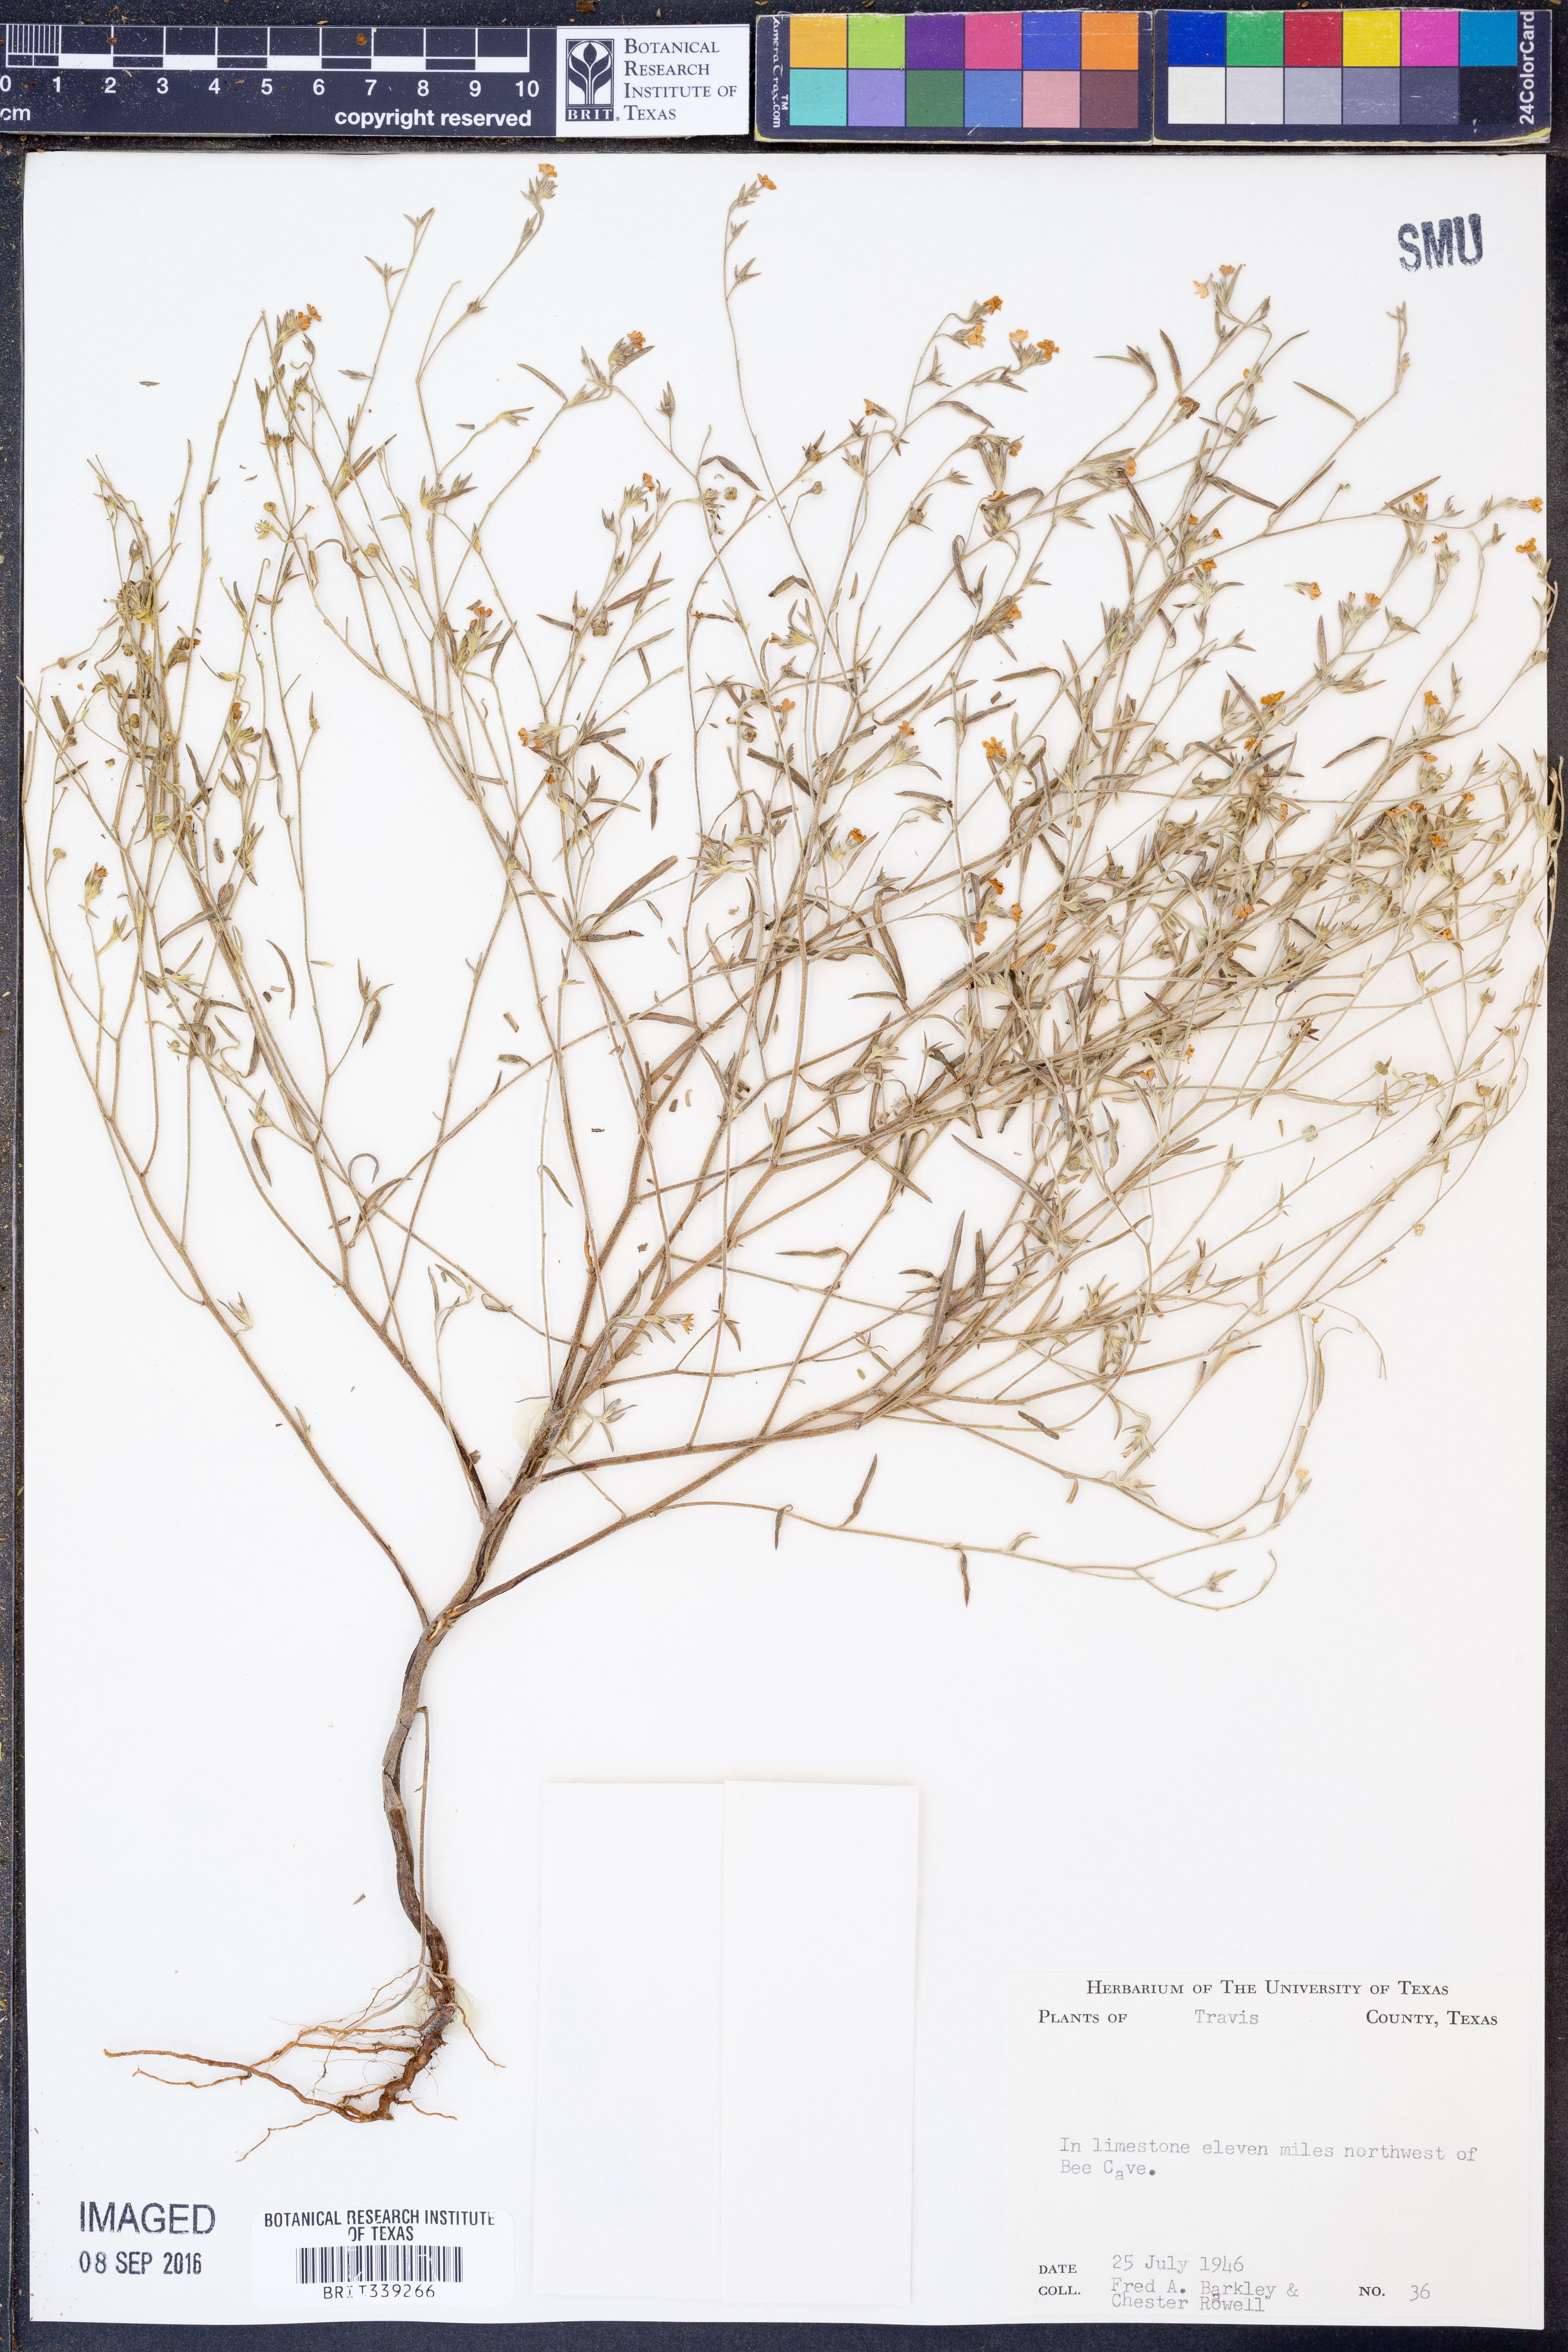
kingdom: Plantae
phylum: Tracheophyta
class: Magnoliopsida
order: Boraginales
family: Heliotropiaceae
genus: Euploca
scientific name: Euploca tenella
